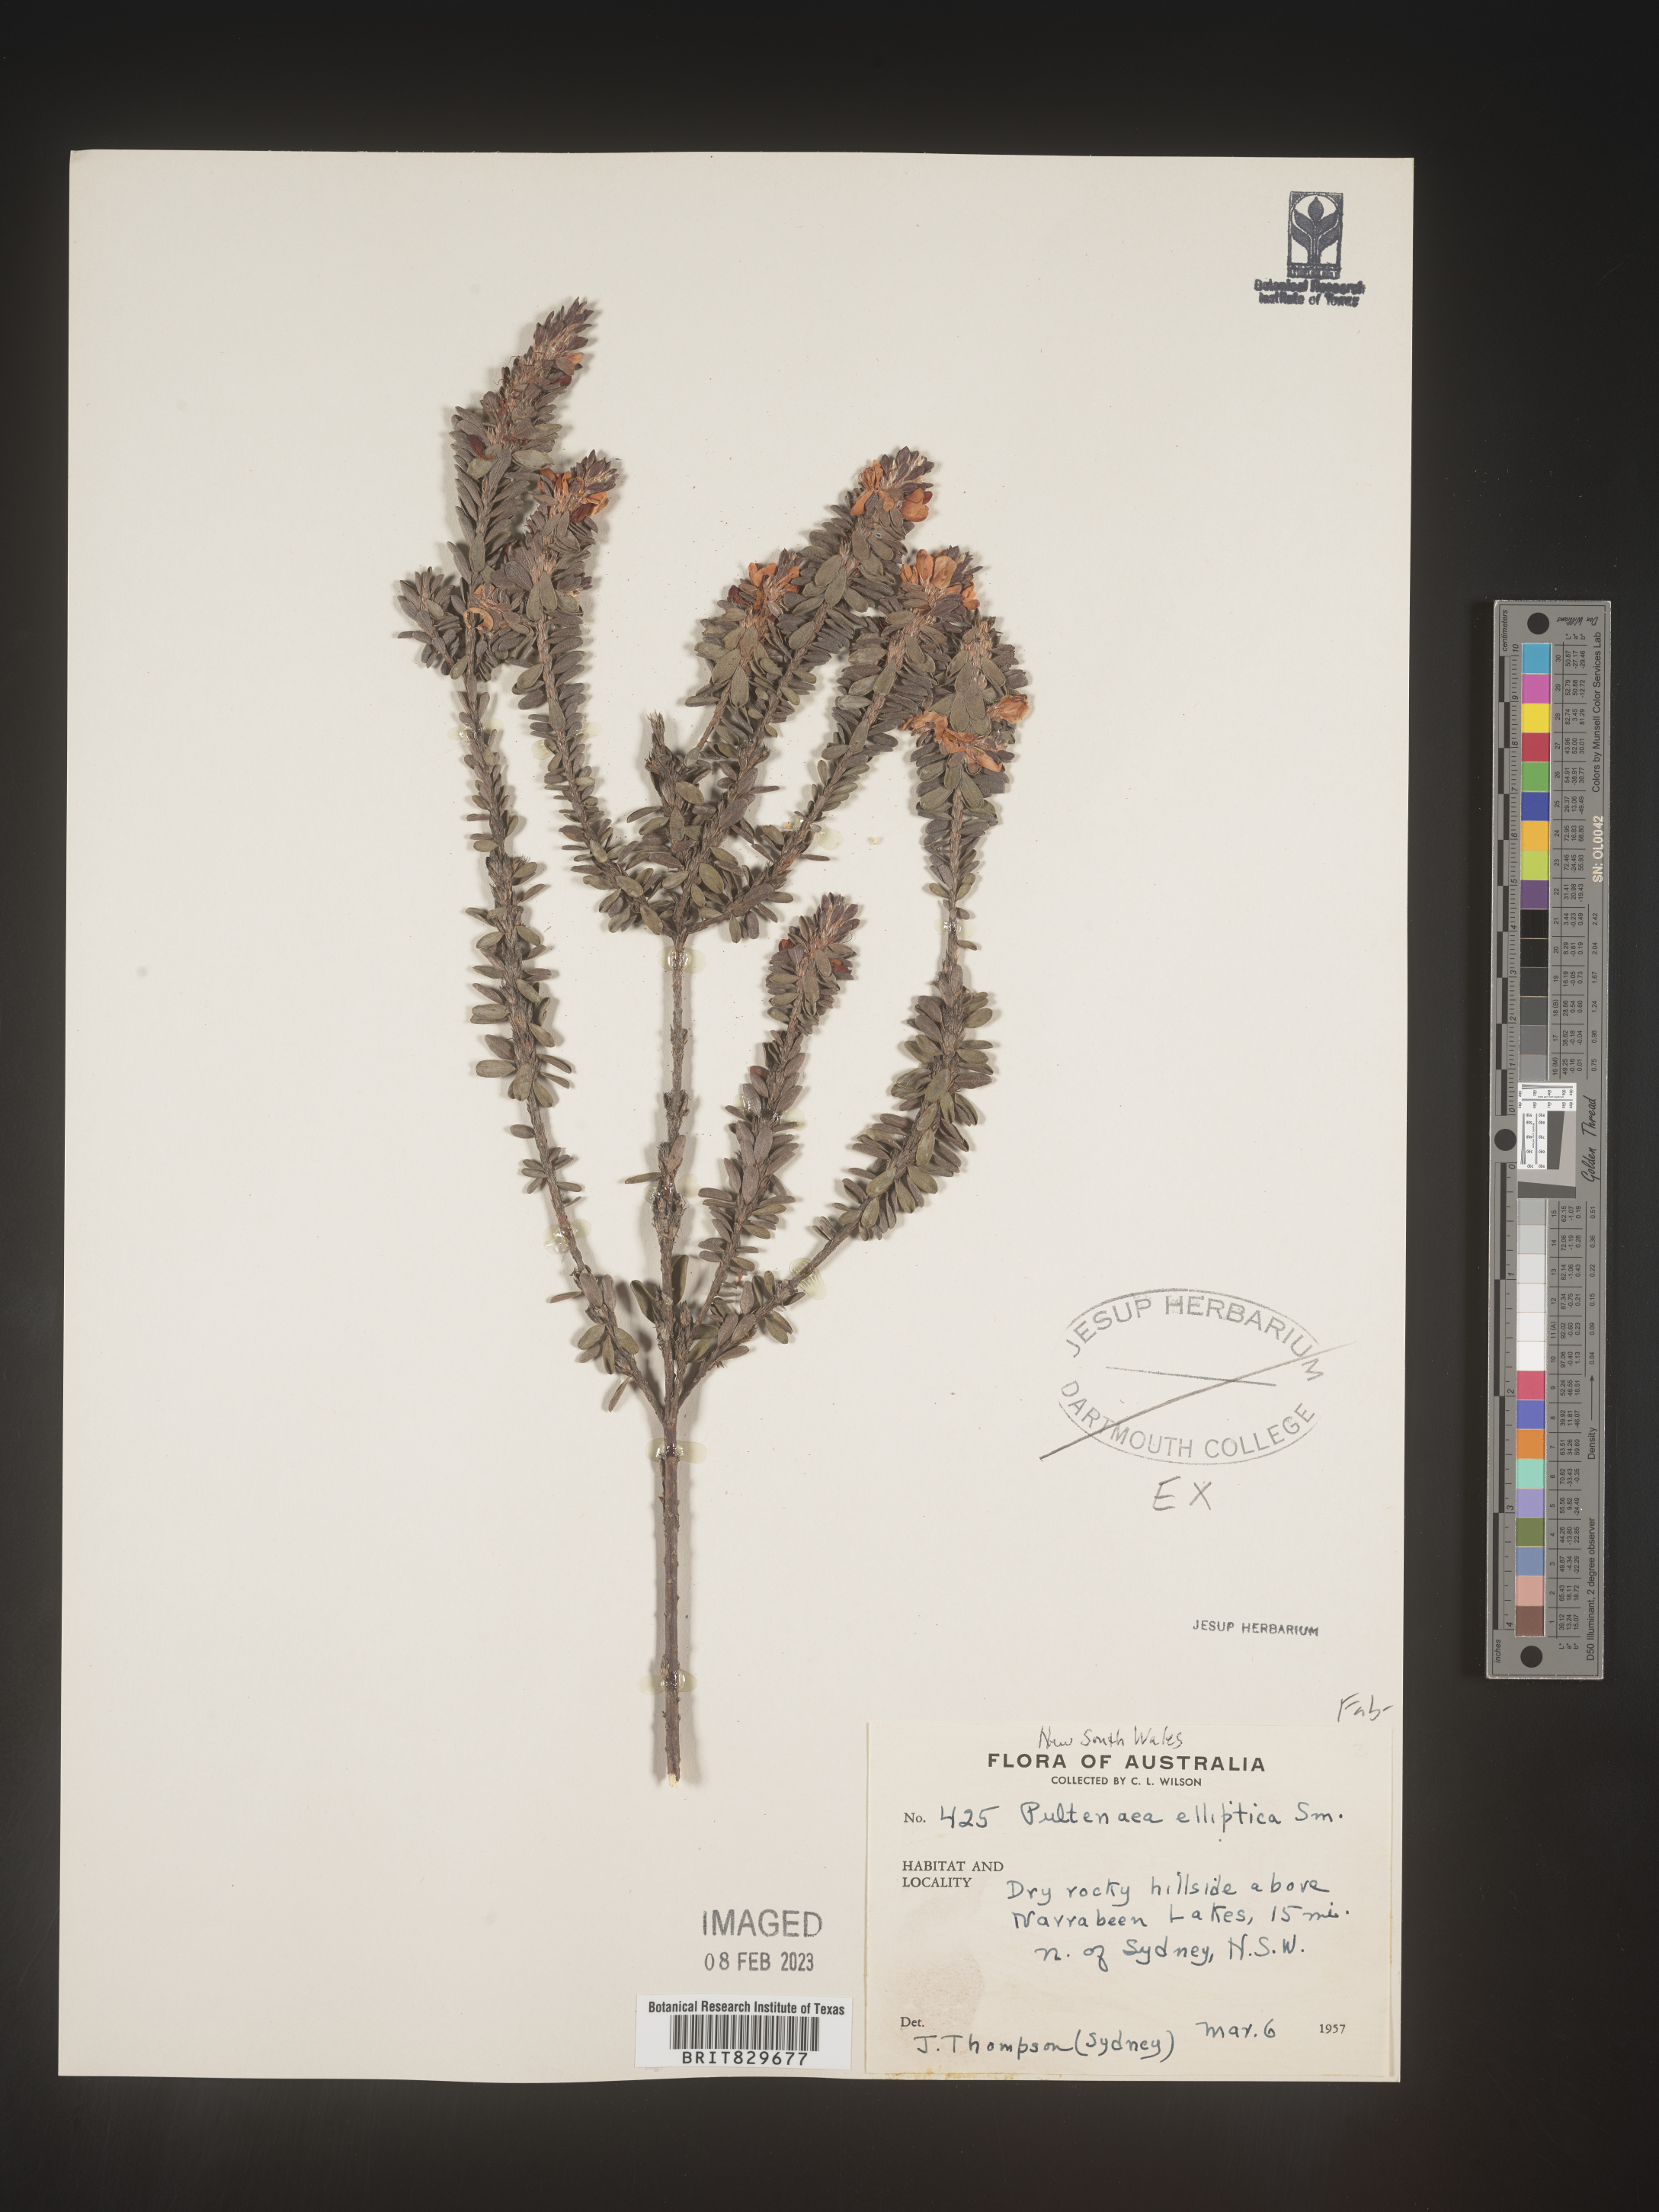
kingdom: Plantae
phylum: Tracheophyta
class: Magnoliopsida
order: Fabales
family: Fabaceae
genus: Pultenaea
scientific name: Pultenaea
